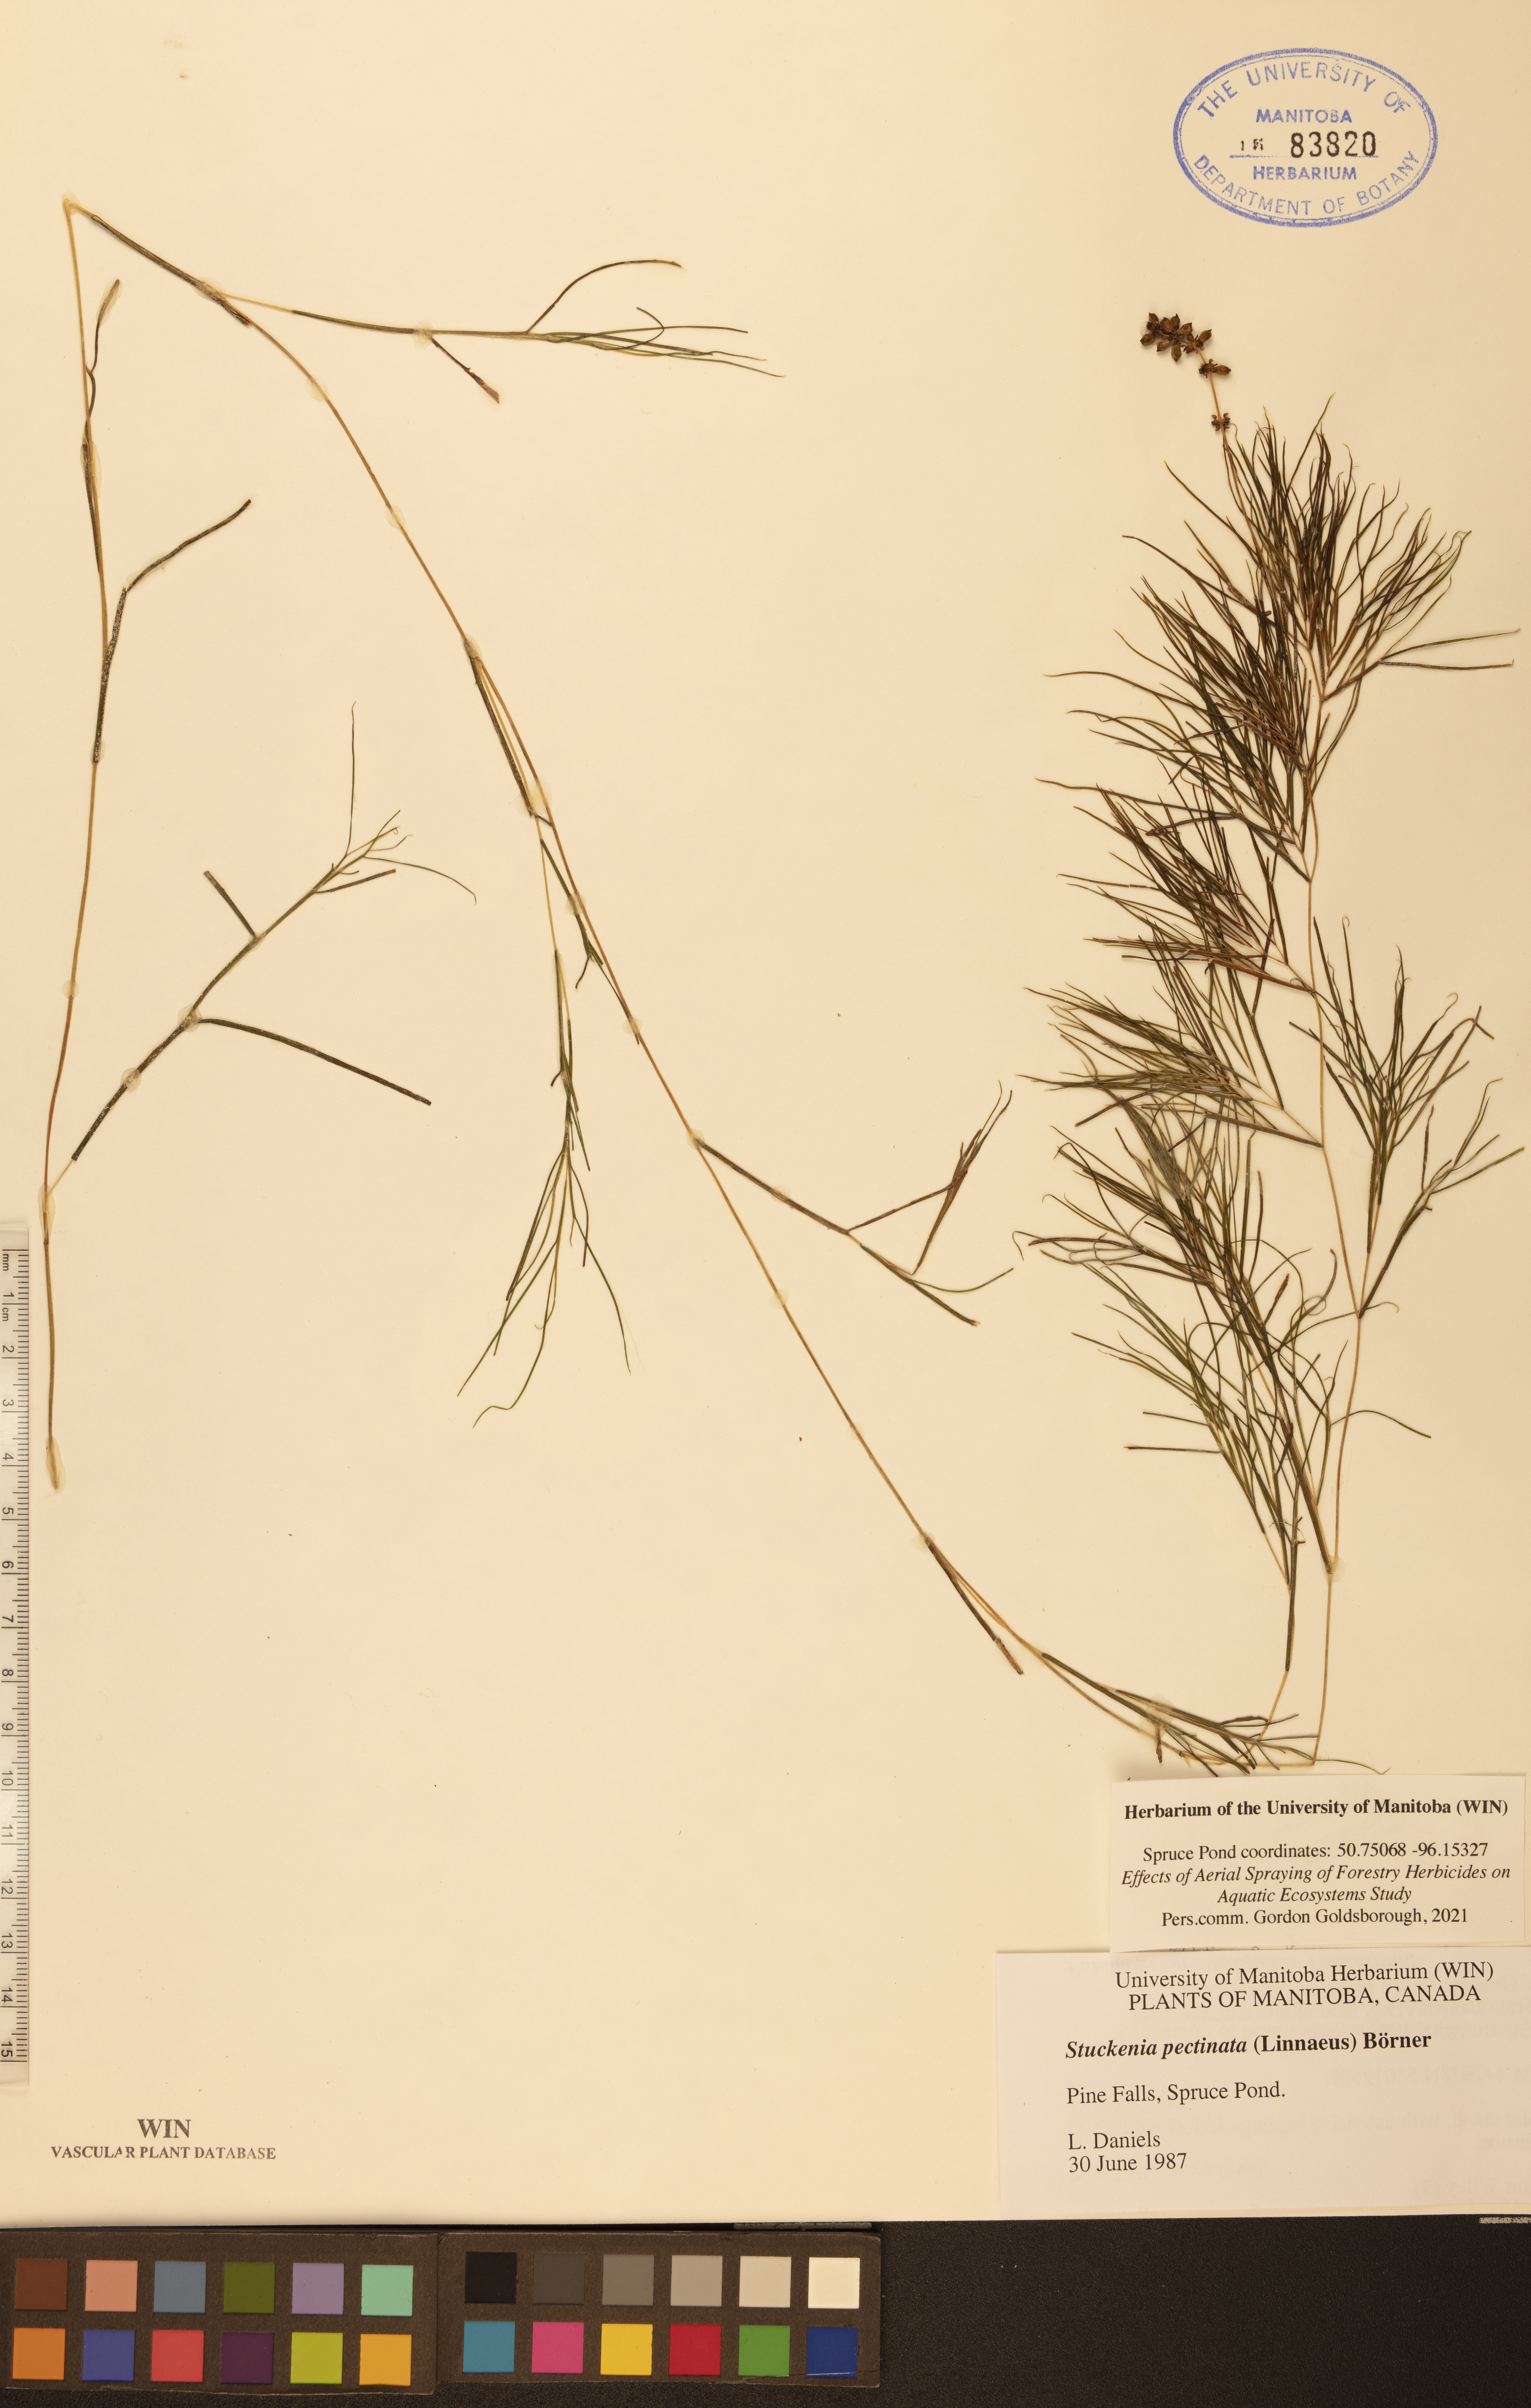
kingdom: Plantae
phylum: Tracheophyta
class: Liliopsida
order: Alismatales
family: Potamogetonaceae
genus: Stuckenia
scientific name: Stuckenia pectinata
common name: Sago pondweed
